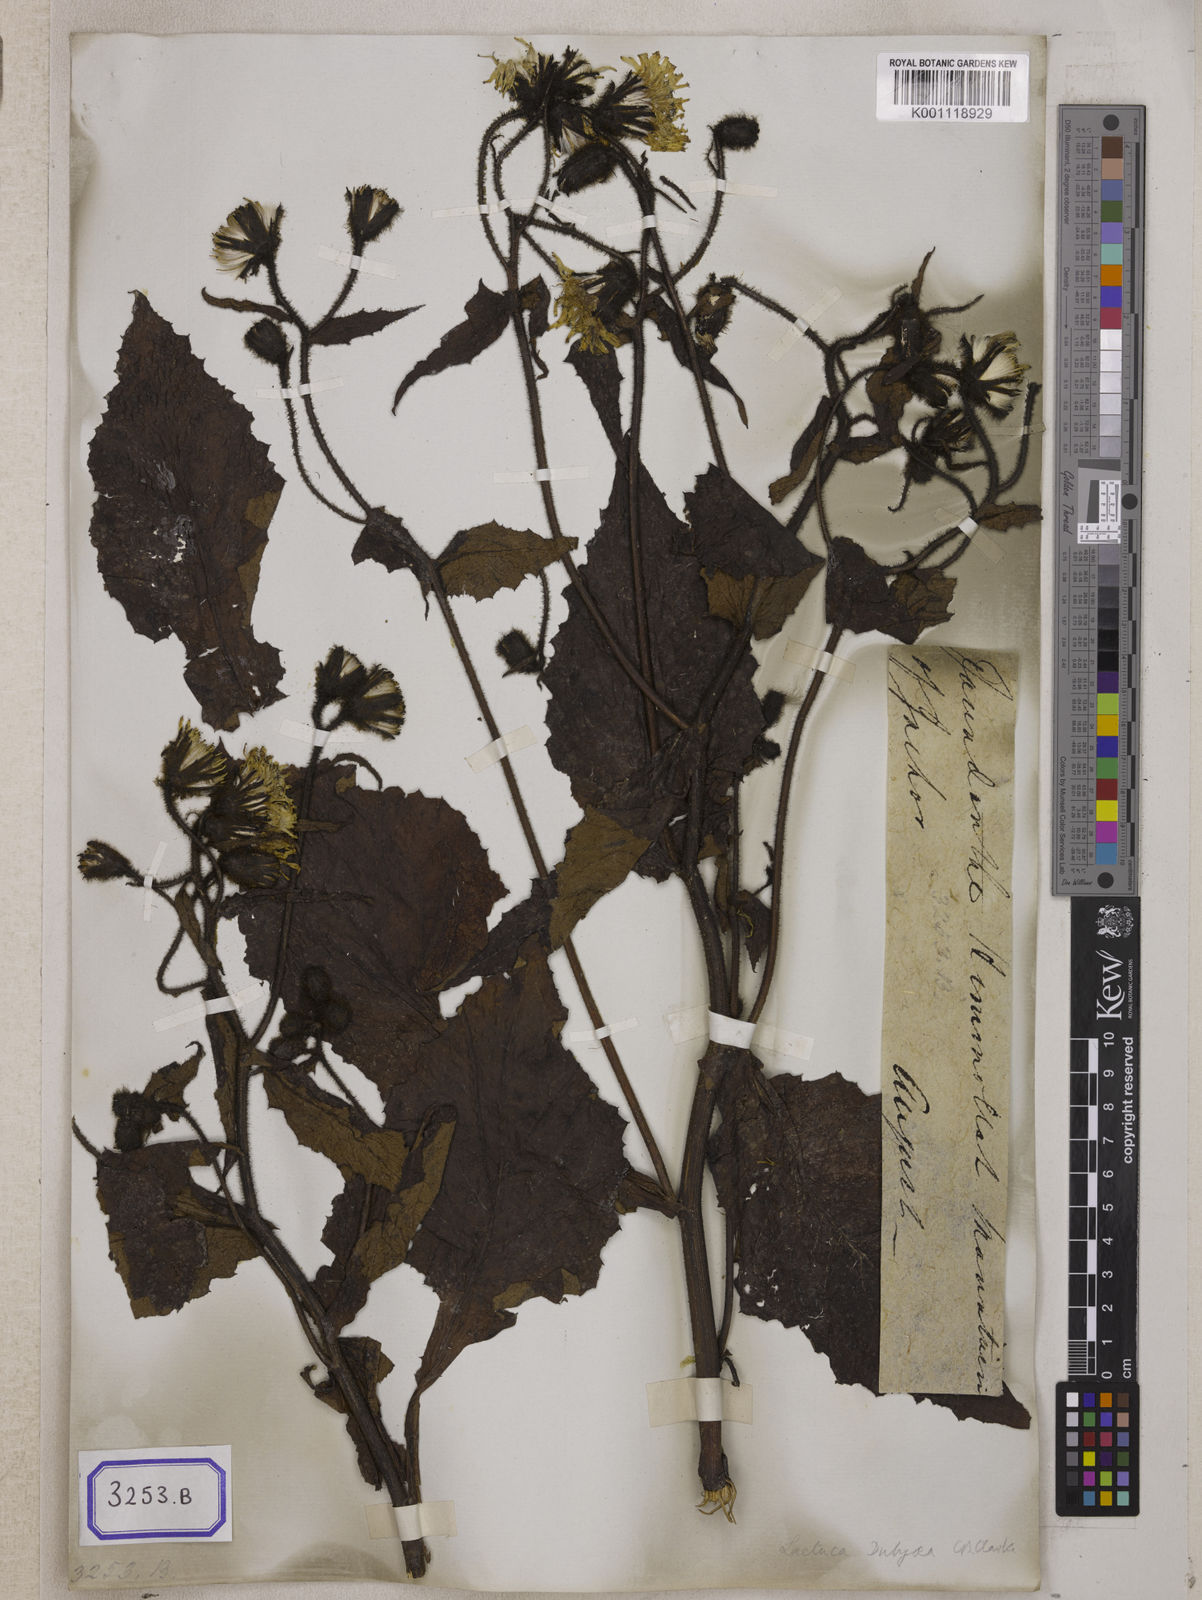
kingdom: Plantae
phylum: Tracheophyta
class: Magnoliopsida
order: Asterales
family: Asteraceae
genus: Dubyaea
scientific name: Dubyaea hispida
